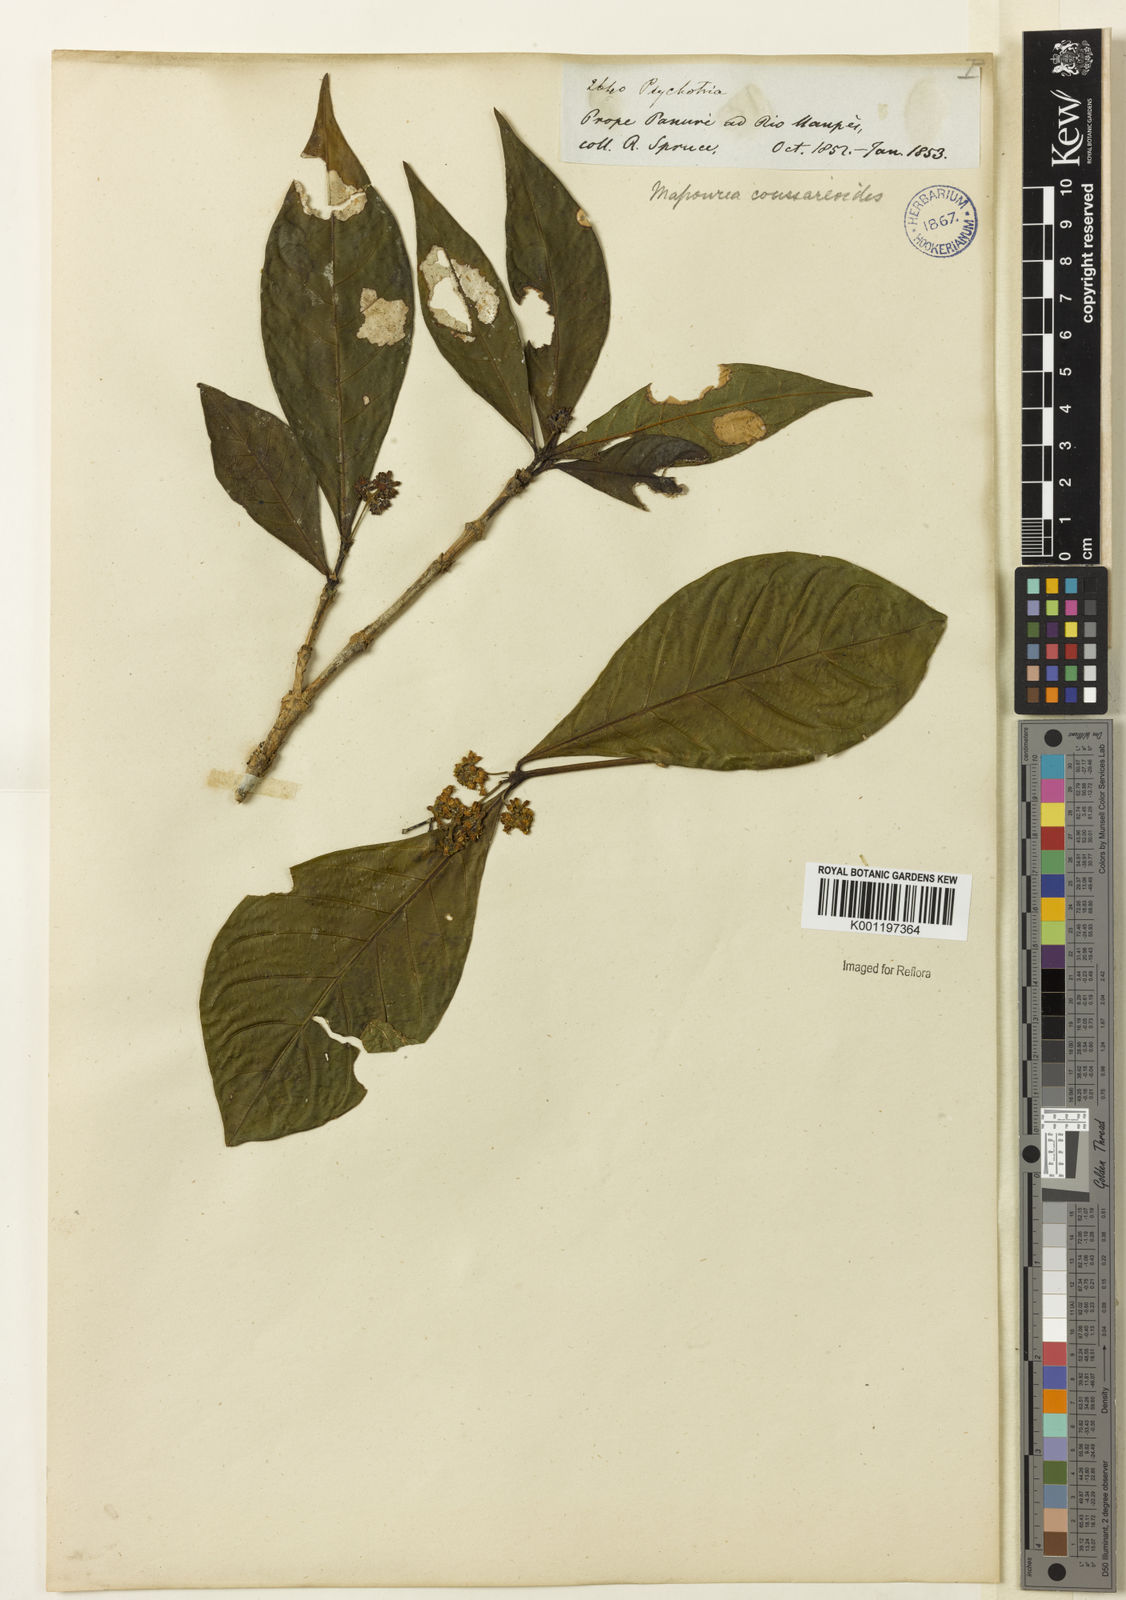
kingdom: Plantae
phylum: Tracheophyta
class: Magnoliopsida
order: Gentianales
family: Rubiaceae
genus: Palicourea
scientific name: Palicourea coussareoides
